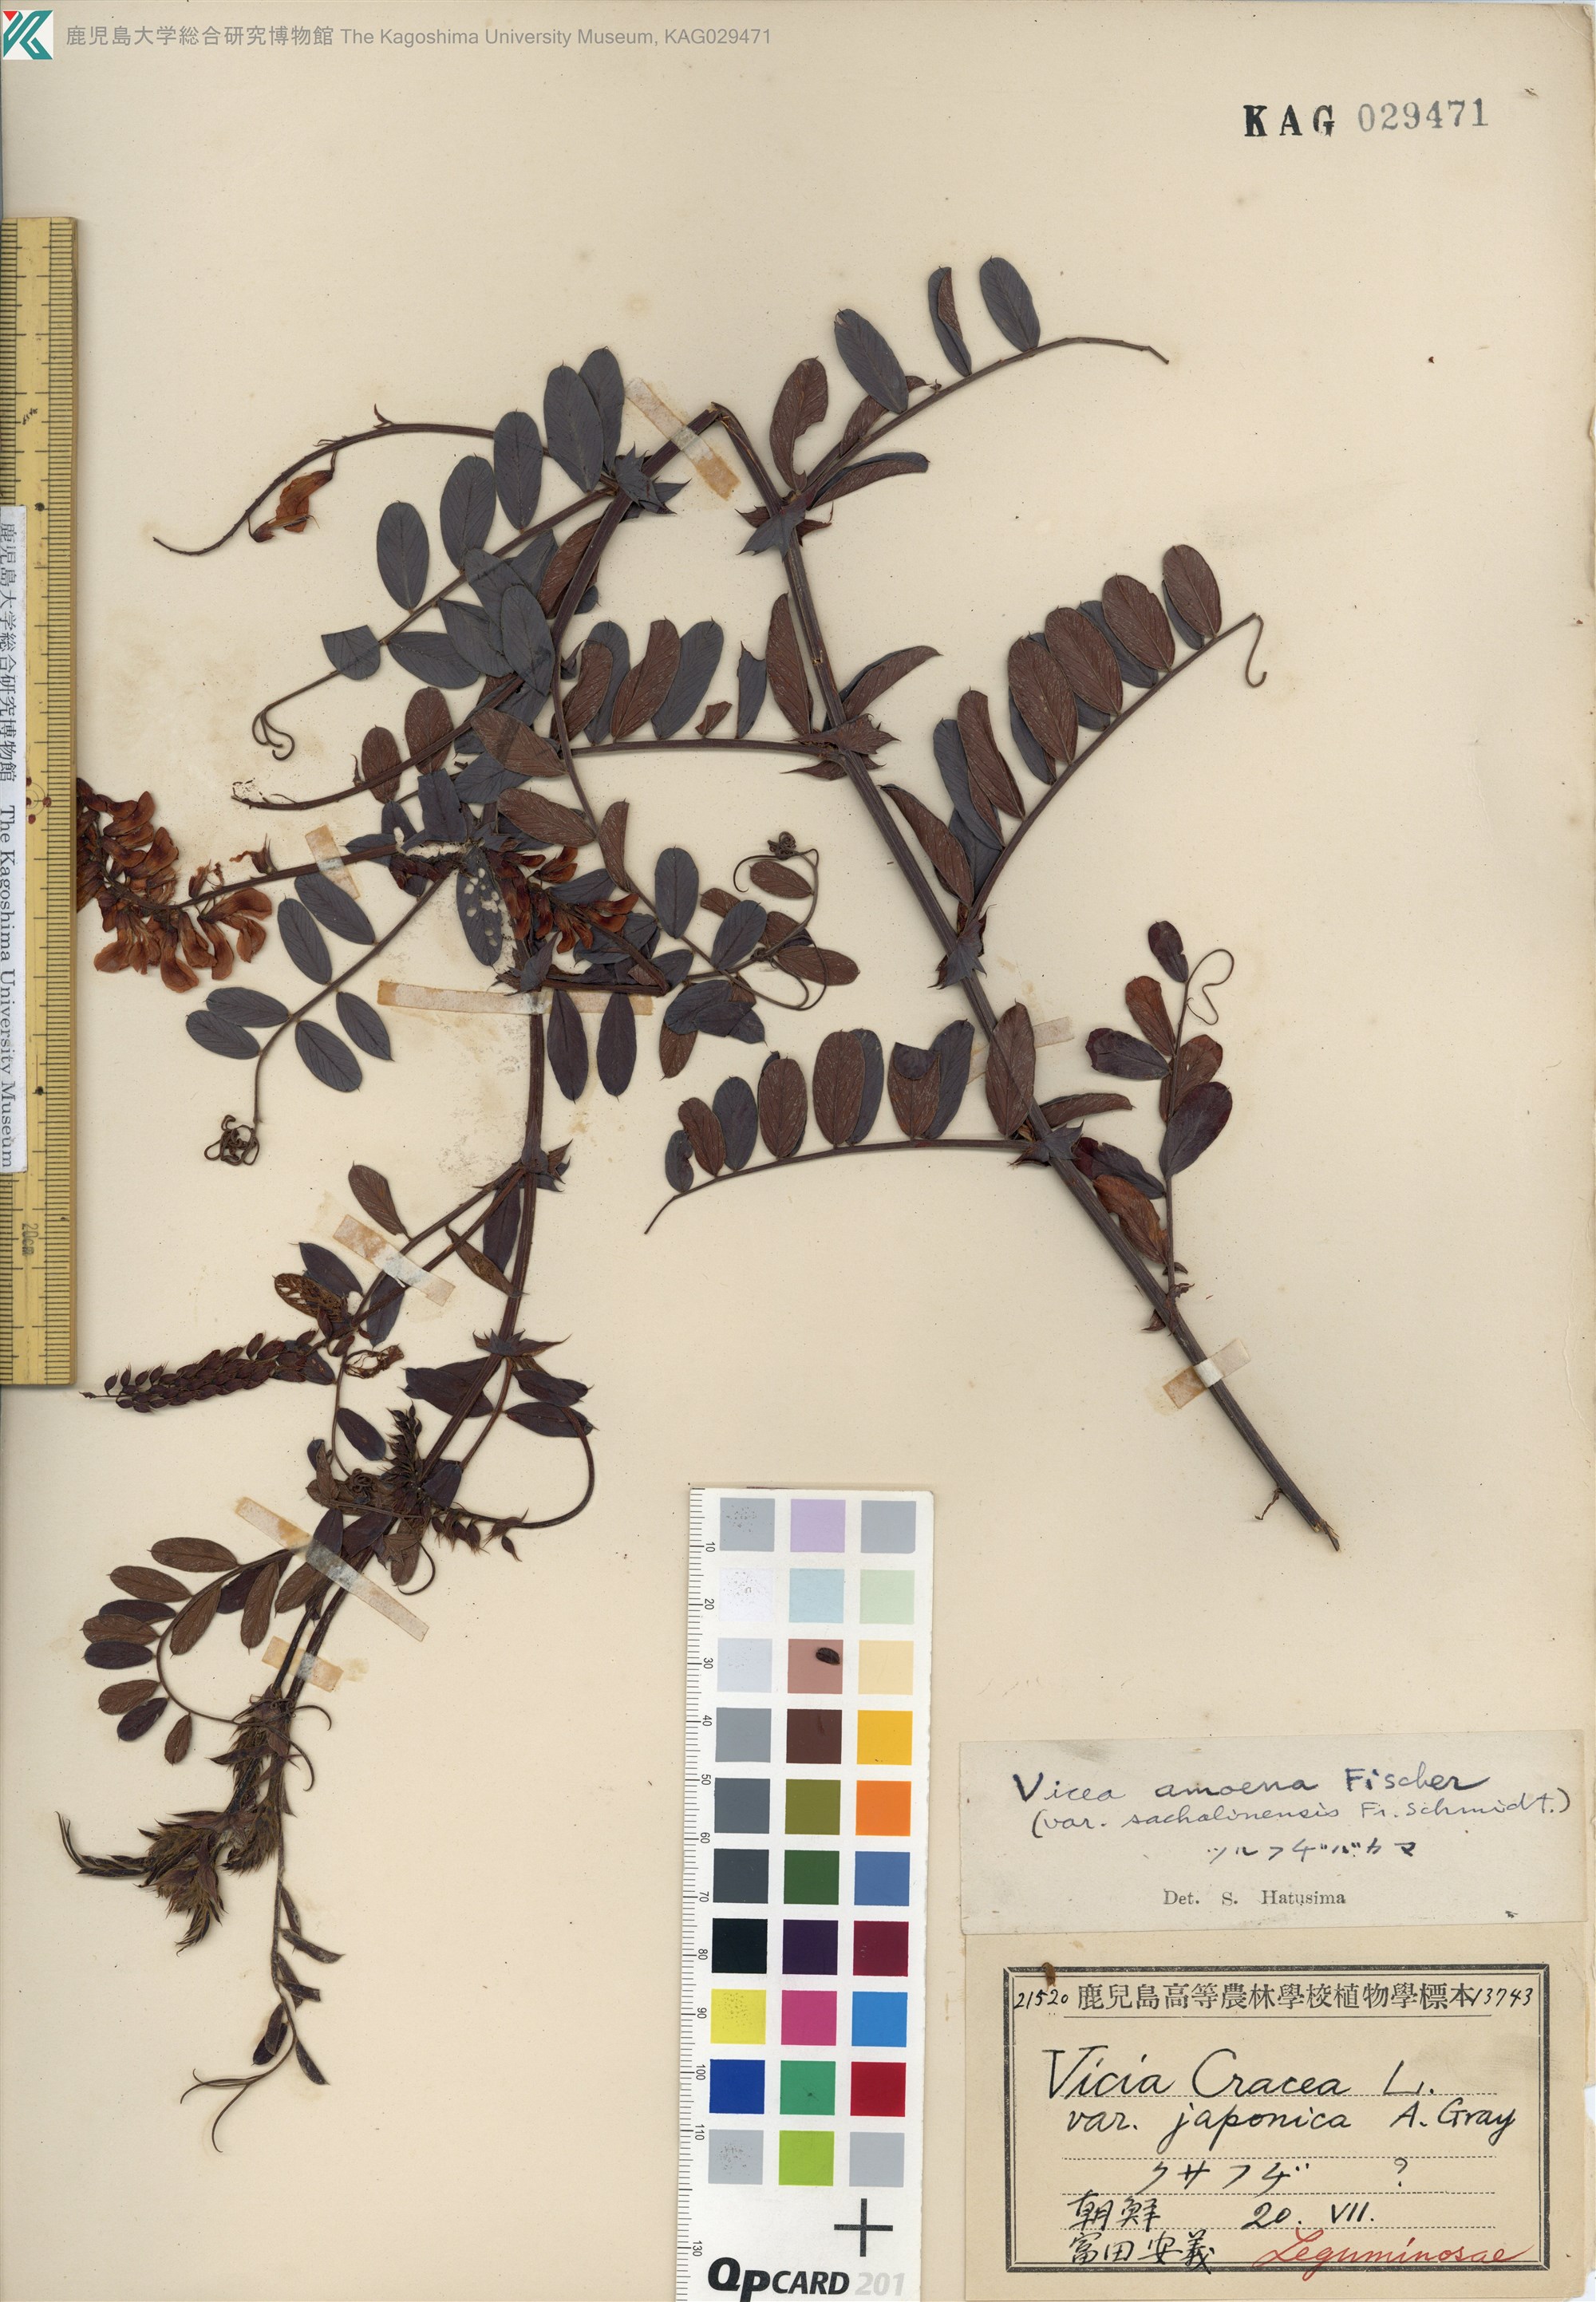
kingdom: Plantae
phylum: Tracheophyta
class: Magnoliopsida
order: Fabales
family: Fabaceae
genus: Vicia
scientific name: Vicia amoena
